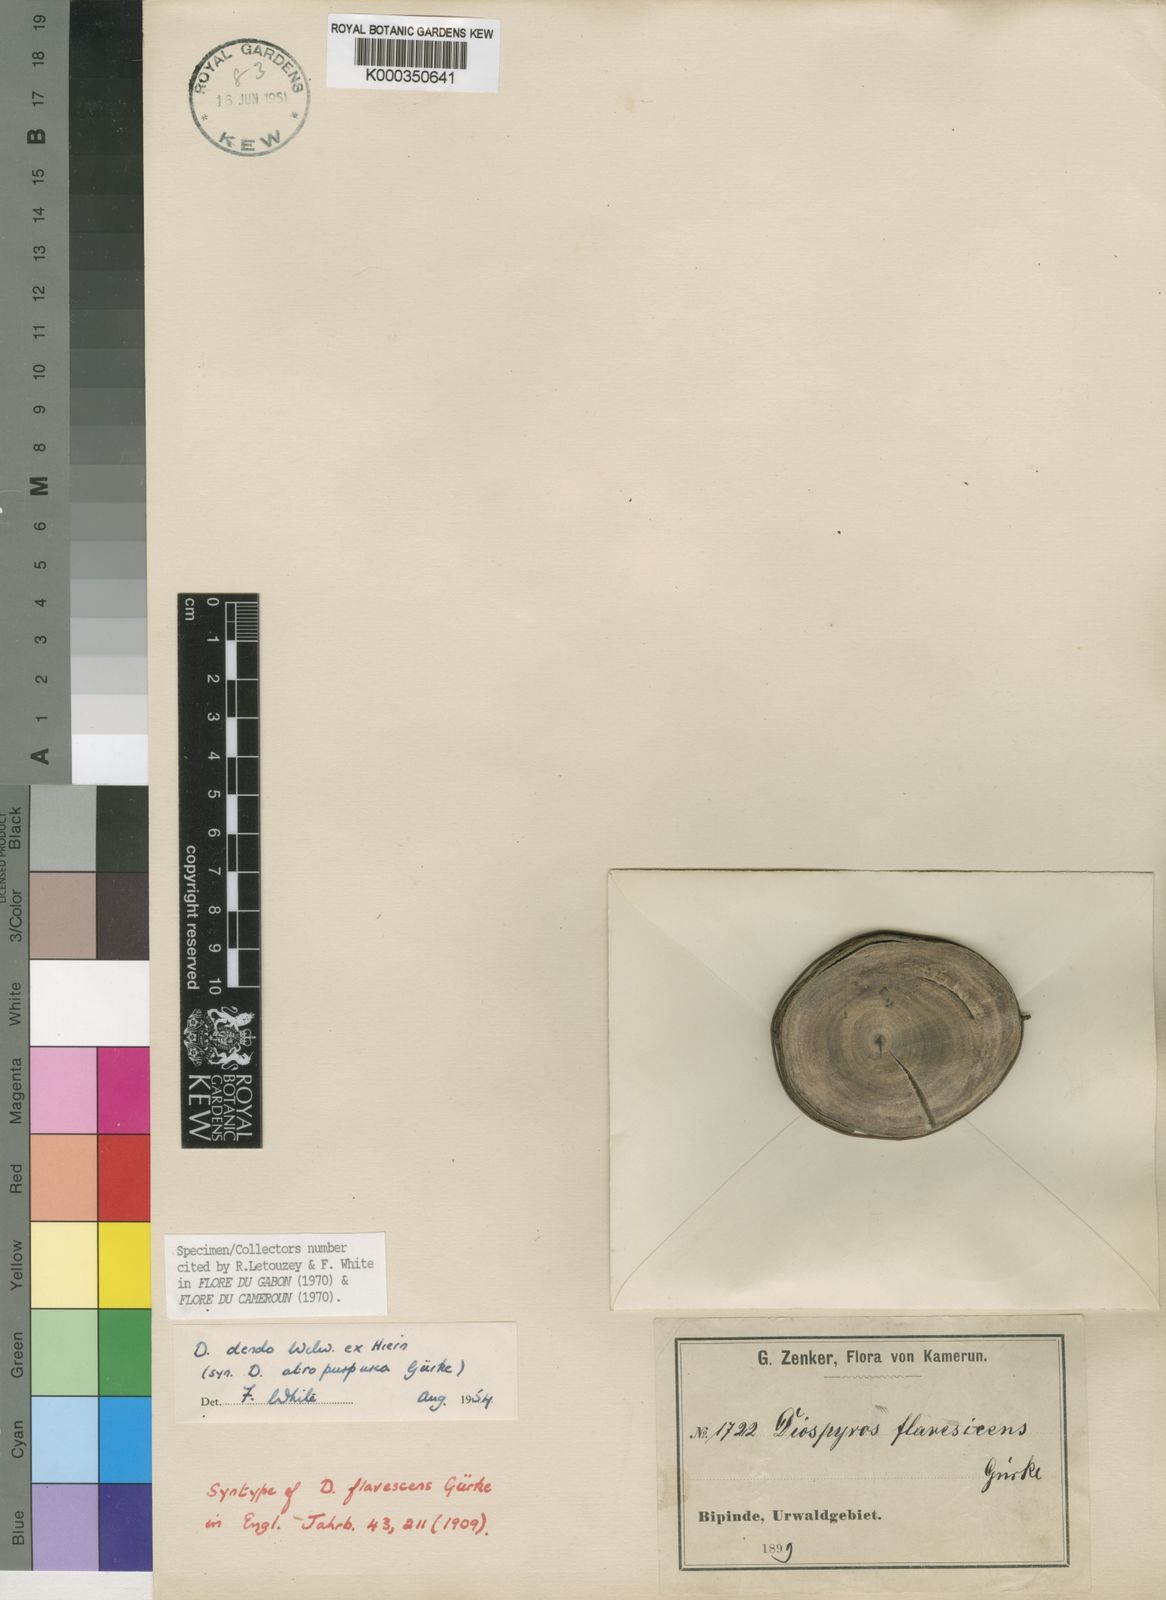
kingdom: Plantae
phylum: Tracheophyta
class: Magnoliopsida
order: Ericales
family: Ebenaceae
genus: Diospyros
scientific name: Diospyros dendo
